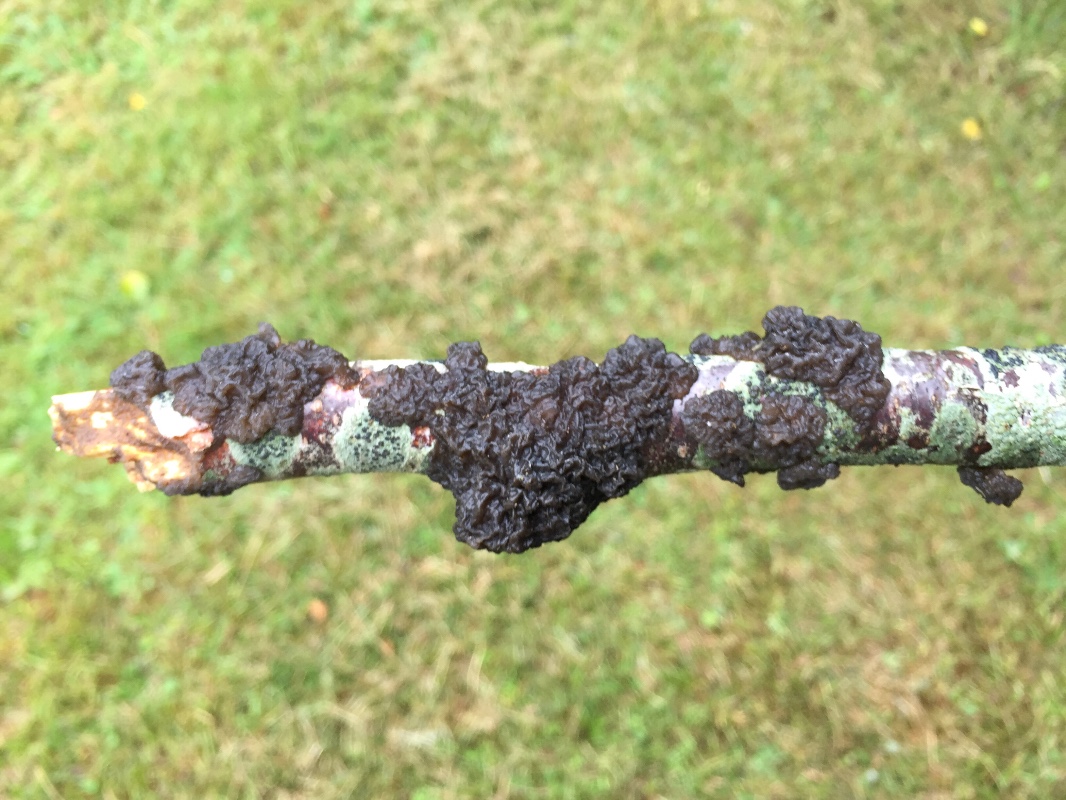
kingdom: Fungi
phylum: Basidiomycota
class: Agaricomycetes
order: Auriculariales
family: Auriculariaceae
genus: Exidia
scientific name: Exidia nigricans
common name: almindelig bævretop
